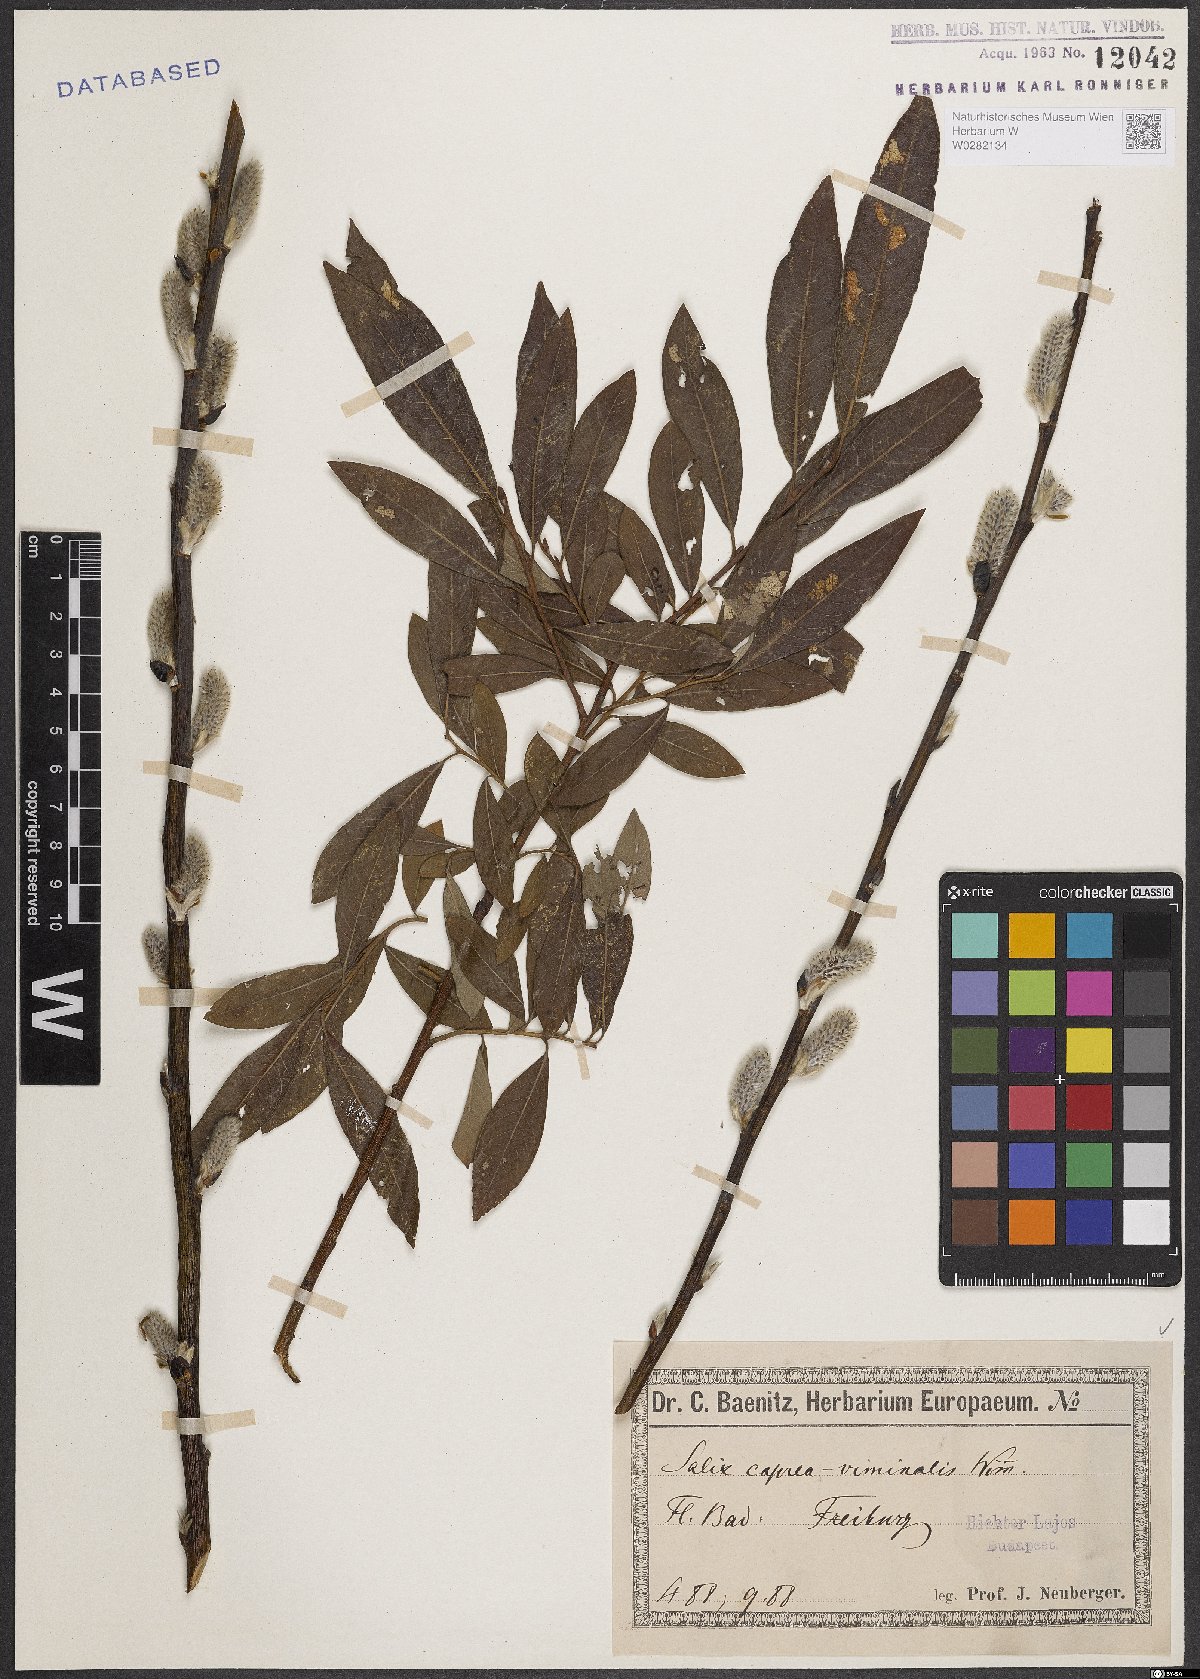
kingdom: Plantae
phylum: Tracheophyta
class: Magnoliopsida
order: Malpighiales
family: Salicaceae
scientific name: Salicaceae
